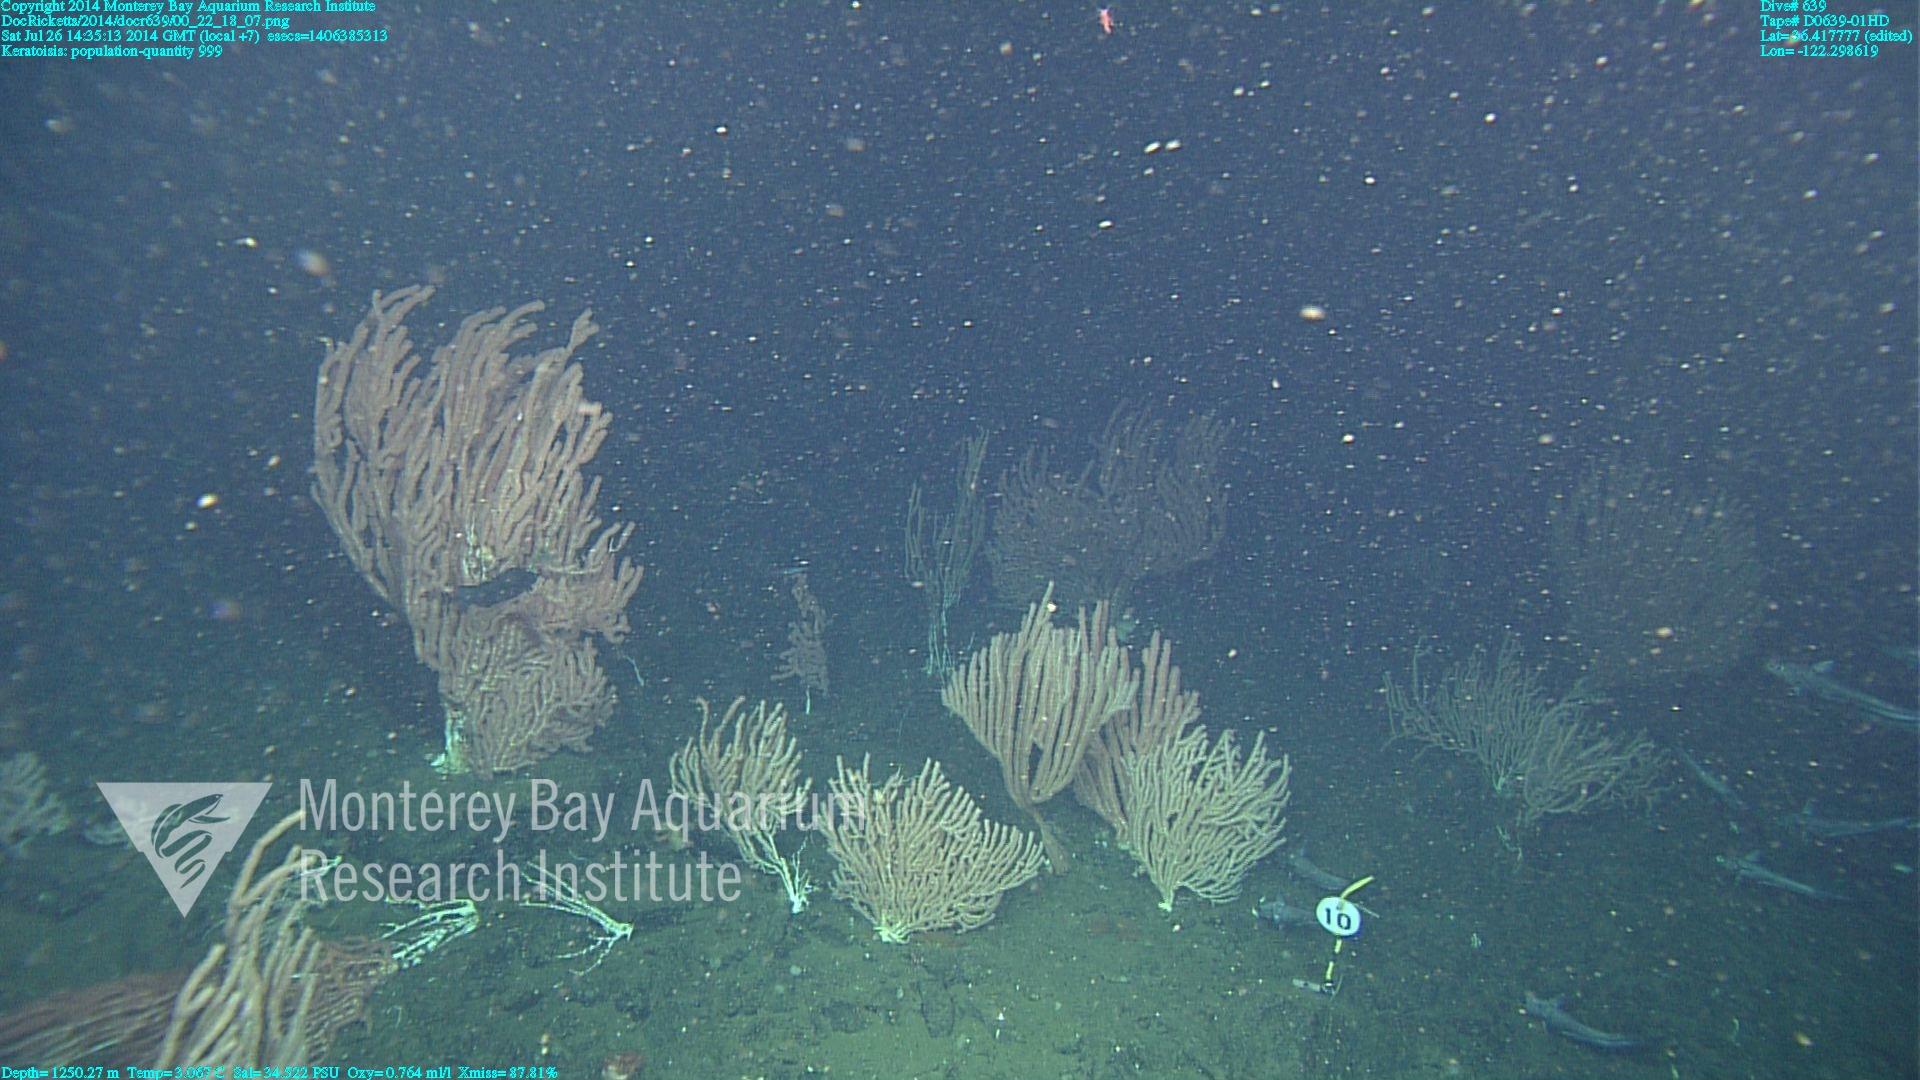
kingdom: Animalia
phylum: Cnidaria
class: Anthozoa
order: Scleralcyonacea
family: Keratoisididae
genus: Keratoisis
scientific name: Keratoisis
